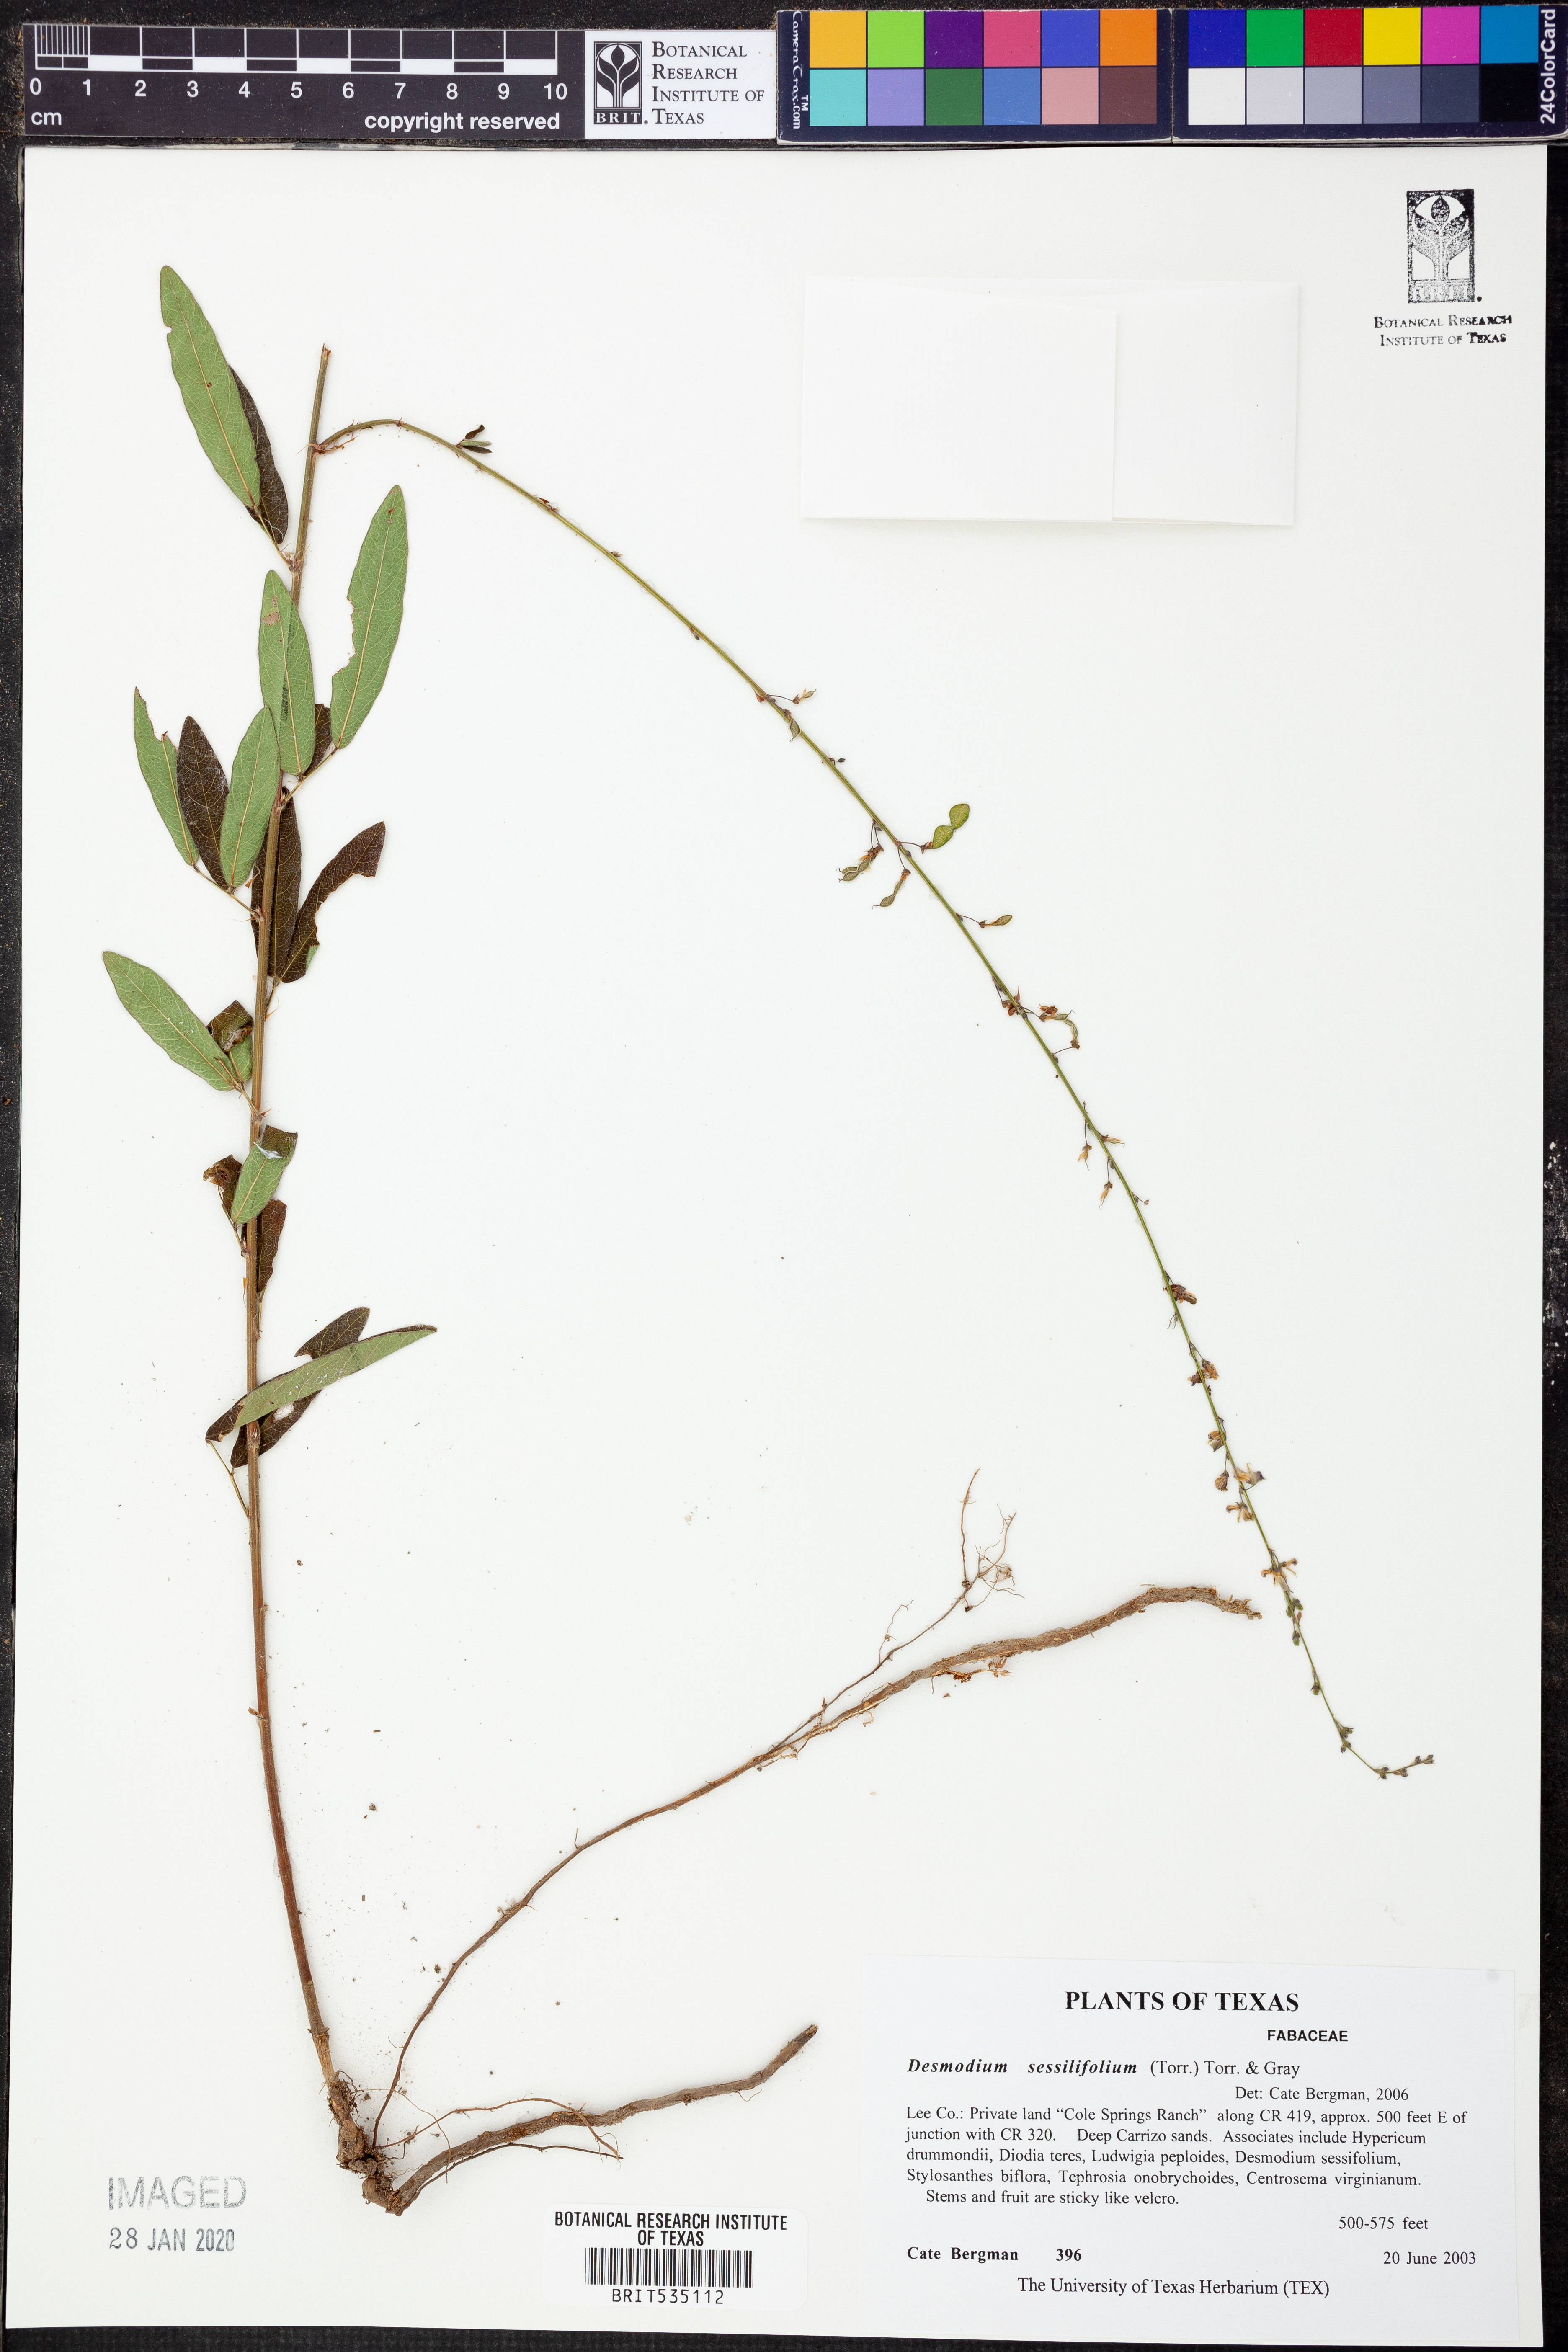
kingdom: Plantae
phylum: Tracheophyta
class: Magnoliopsida
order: Fabales
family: Fabaceae
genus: Desmodium
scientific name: Desmodium sessilifolium
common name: Sessile tick-clover
